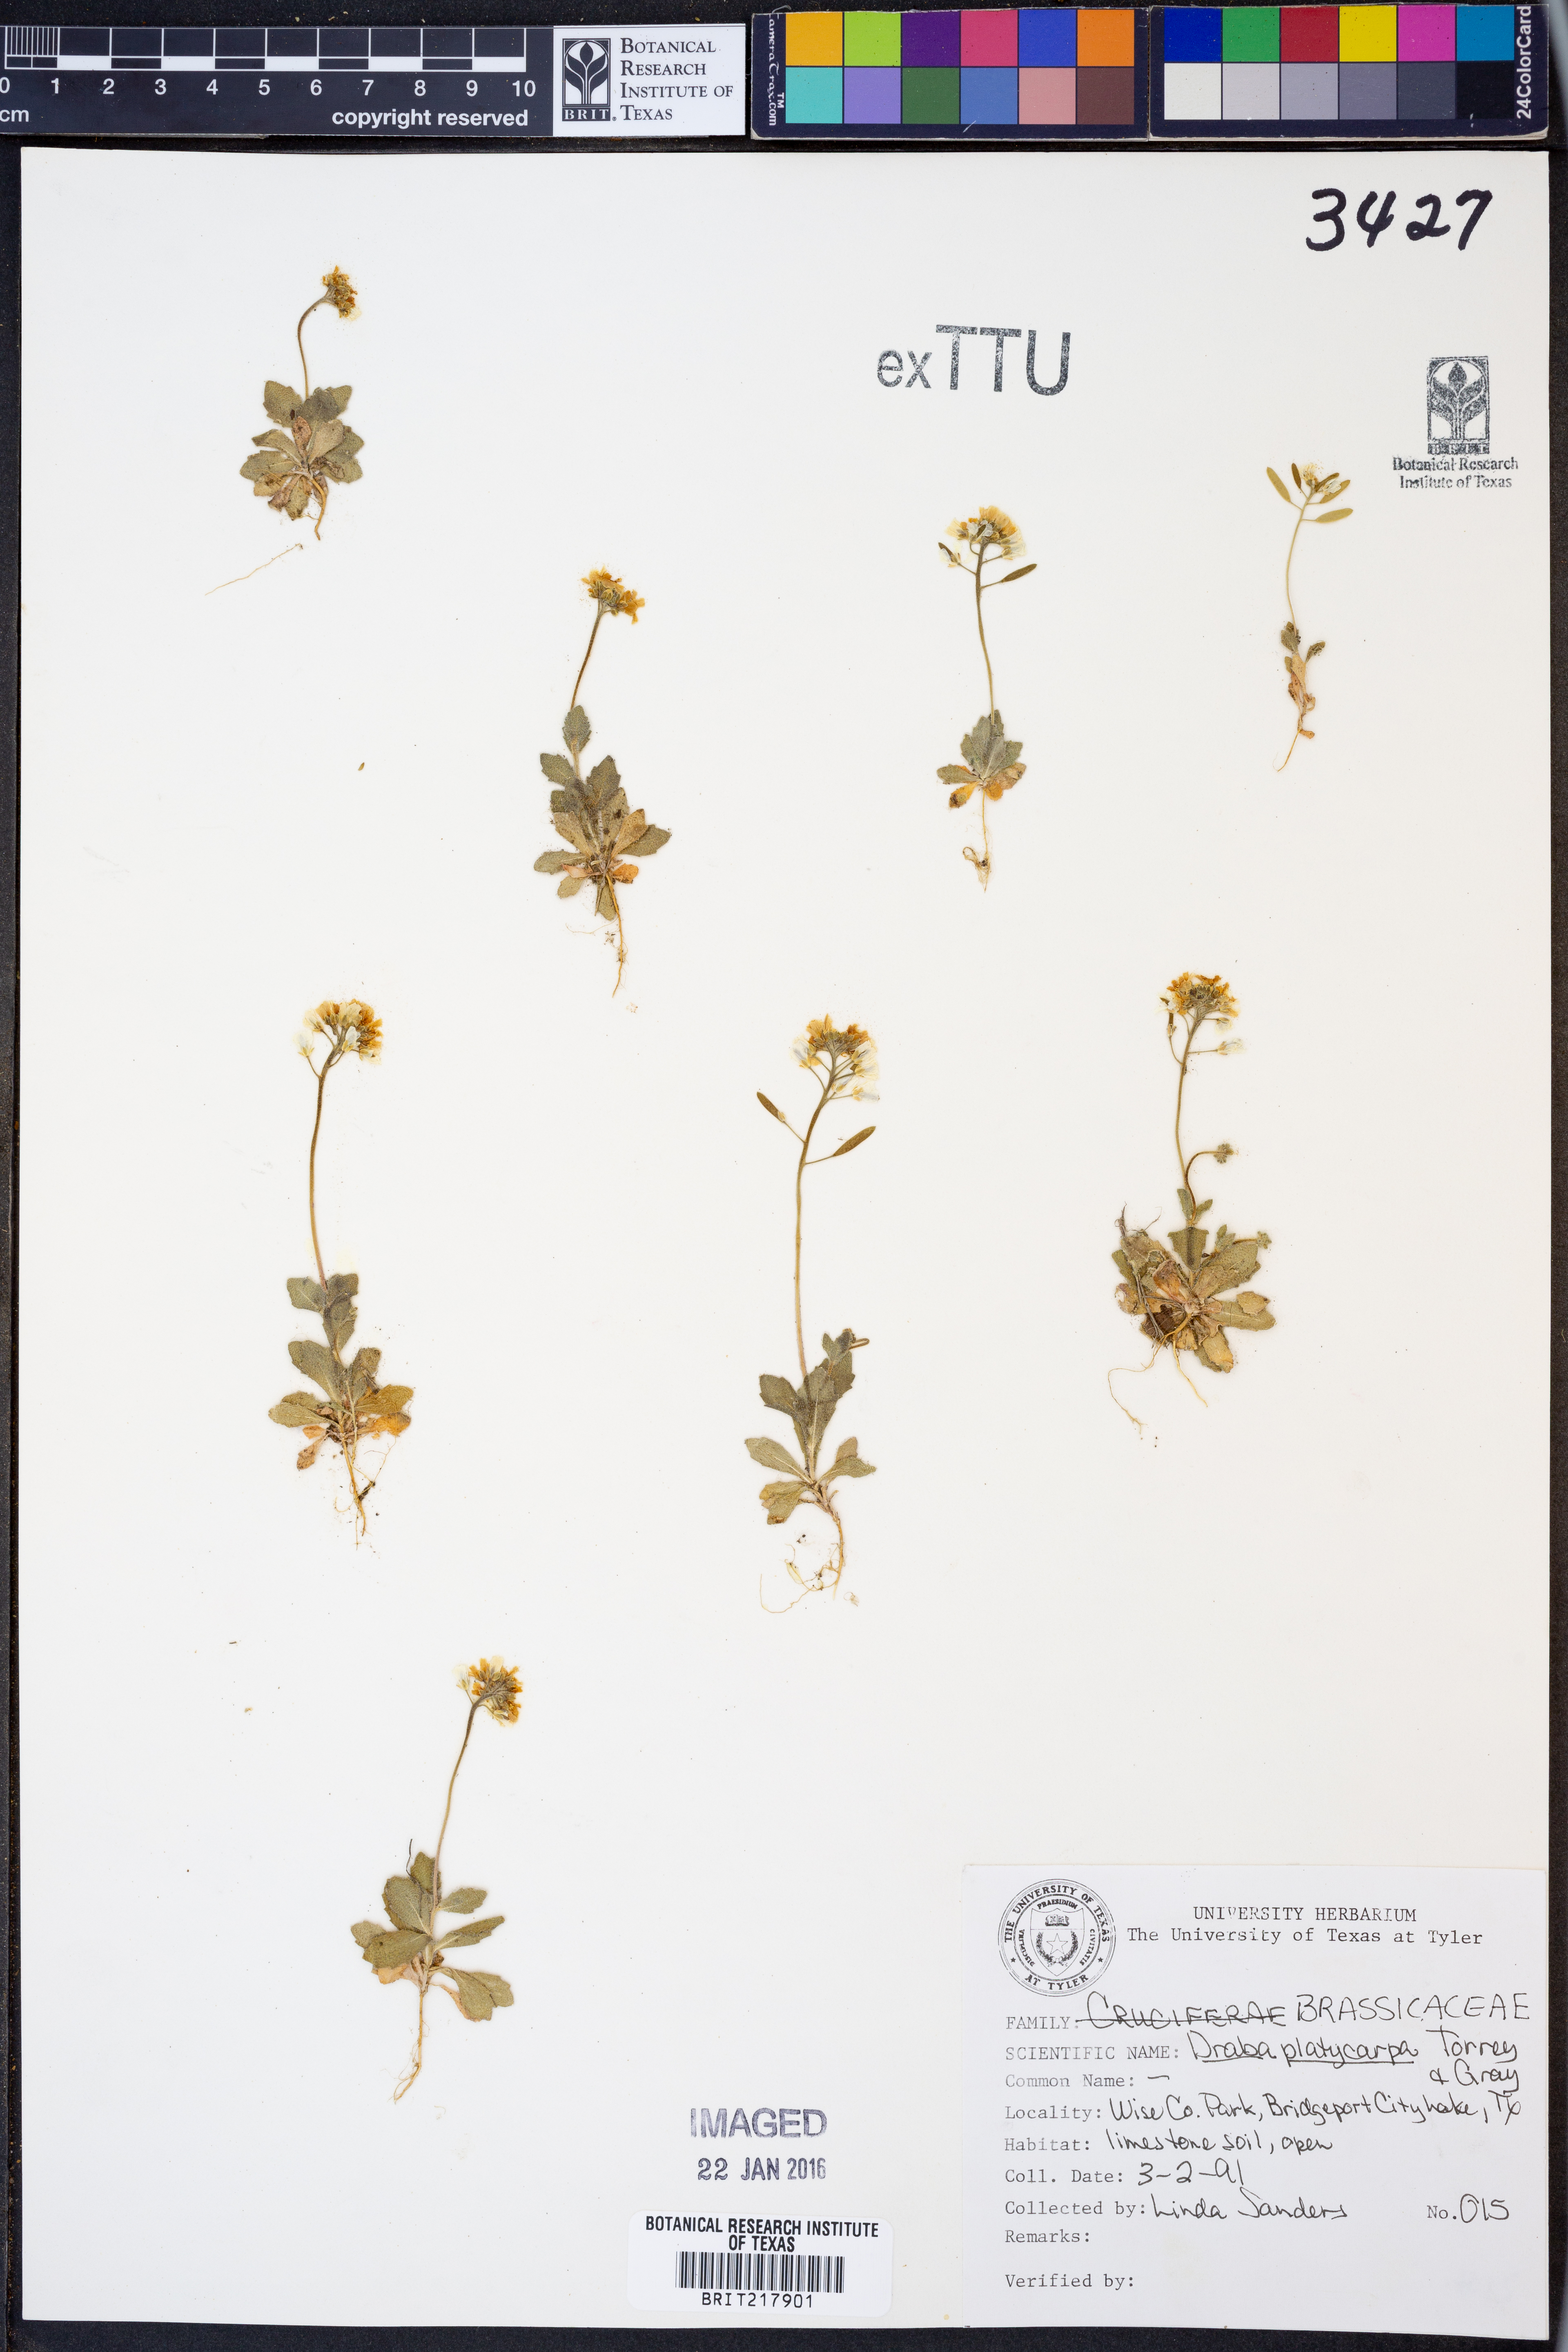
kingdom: Plantae
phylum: Tracheophyta
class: Magnoliopsida
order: Brassicales
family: Brassicaceae
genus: Tomostima
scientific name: Tomostima platycarpa
